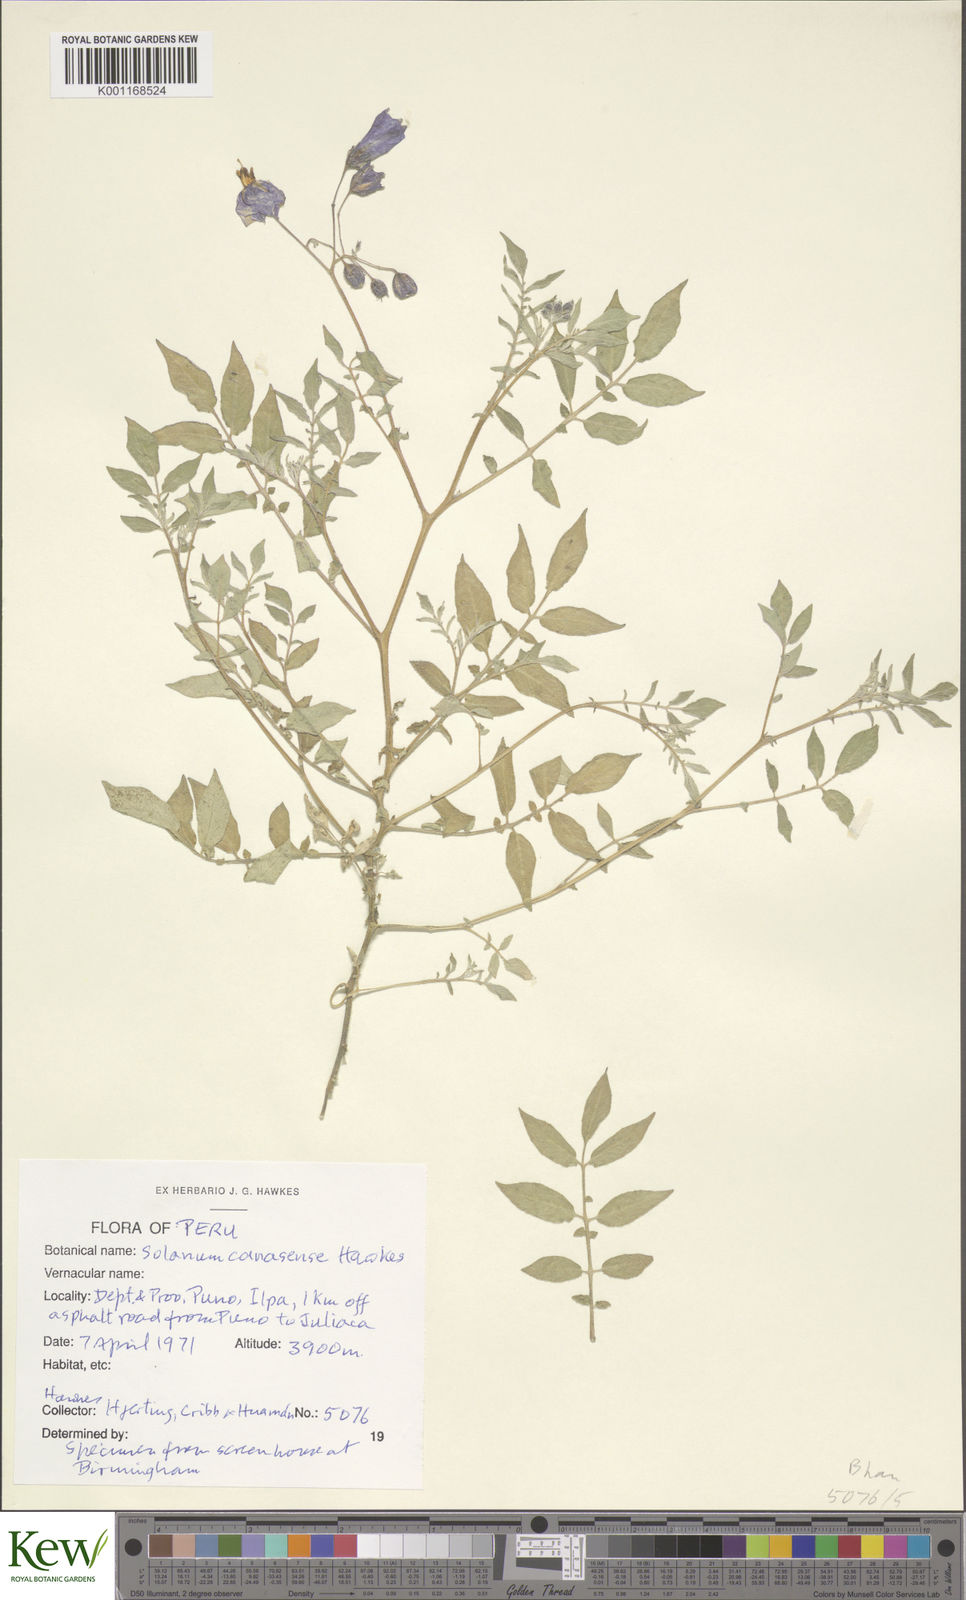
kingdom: Plantae
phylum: Tracheophyta
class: Magnoliopsida
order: Solanales
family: Solanaceae
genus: Solanum
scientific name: Solanum candolleanum
